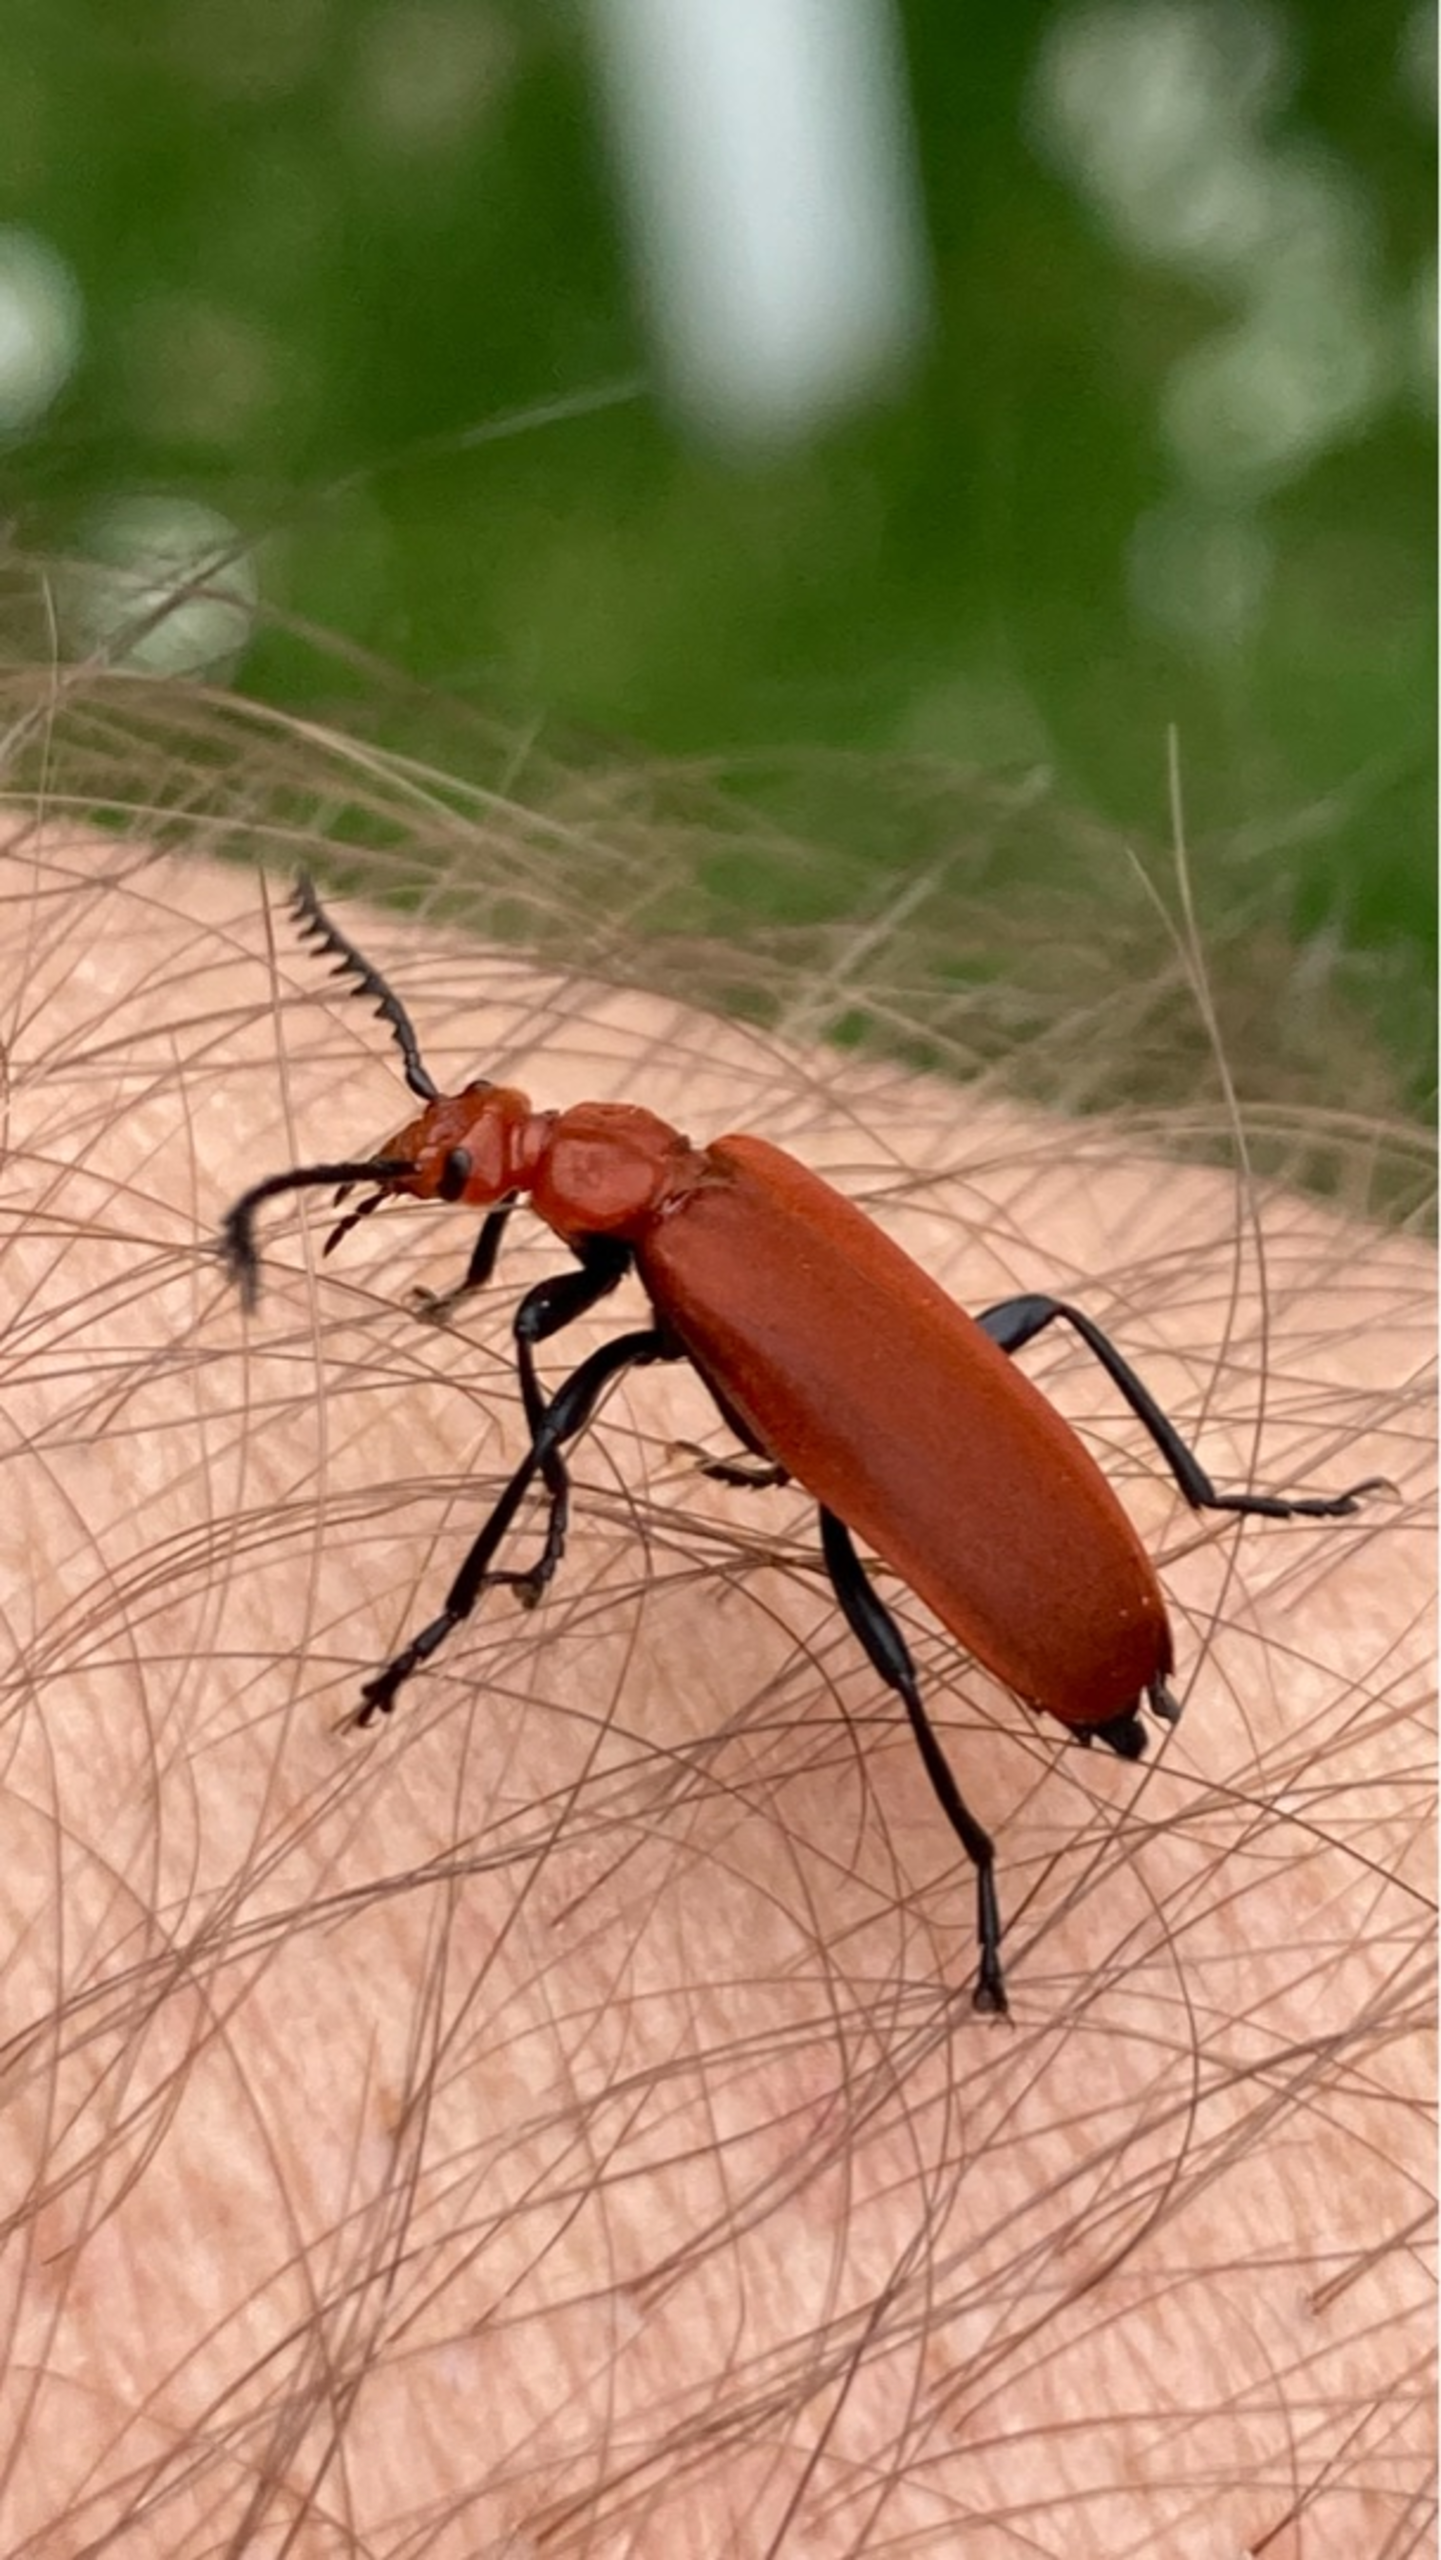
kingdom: Animalia
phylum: Arthropoda
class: Insecta
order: Coleoptera
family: Pyrochroidae
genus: Pyrochroa
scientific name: Pyrochroa serraticornis
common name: Rødhovedet kardinalbille
